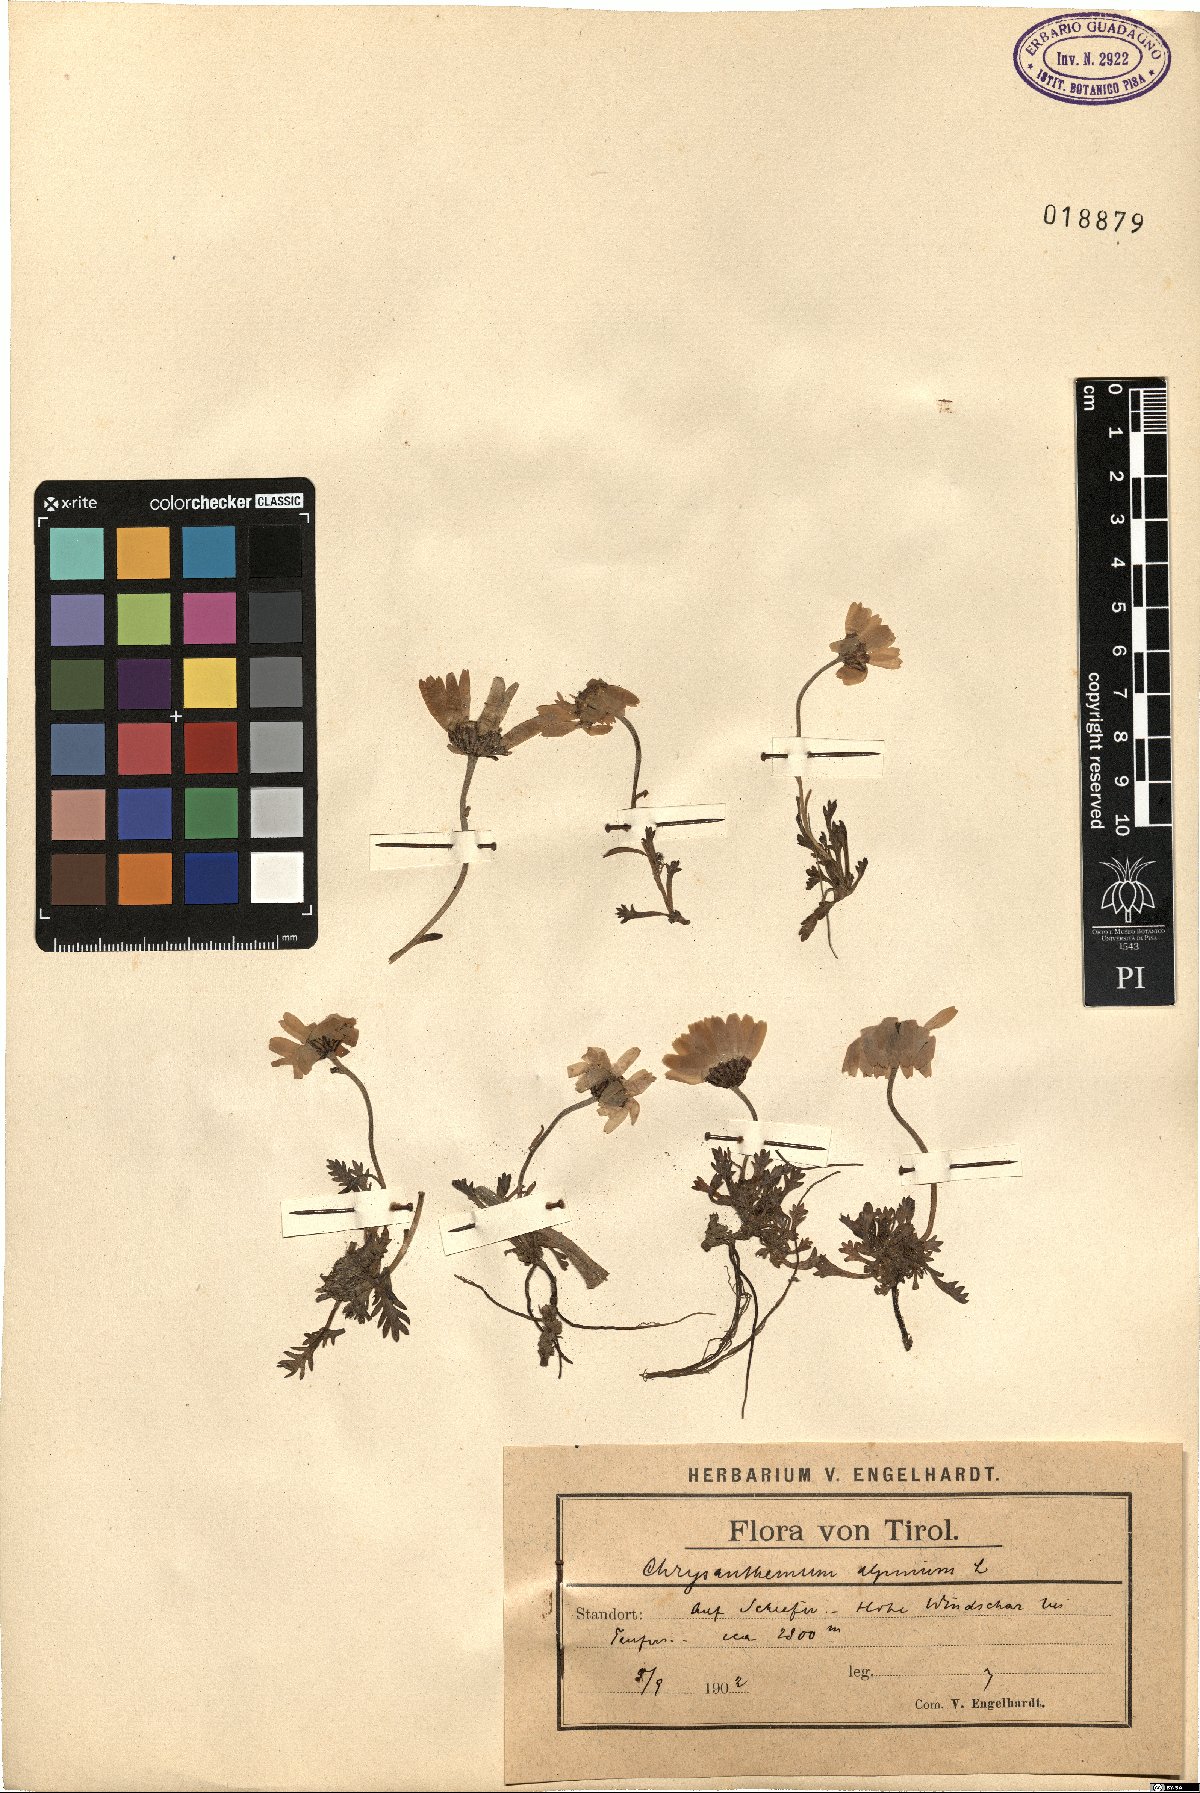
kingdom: Plantae
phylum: Tracheophyta
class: Magnoliopsida
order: Asterales
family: Asteraceae
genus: Leucanthemopsis
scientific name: Leucanthemopsis alpina
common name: Alpine moon daisy
